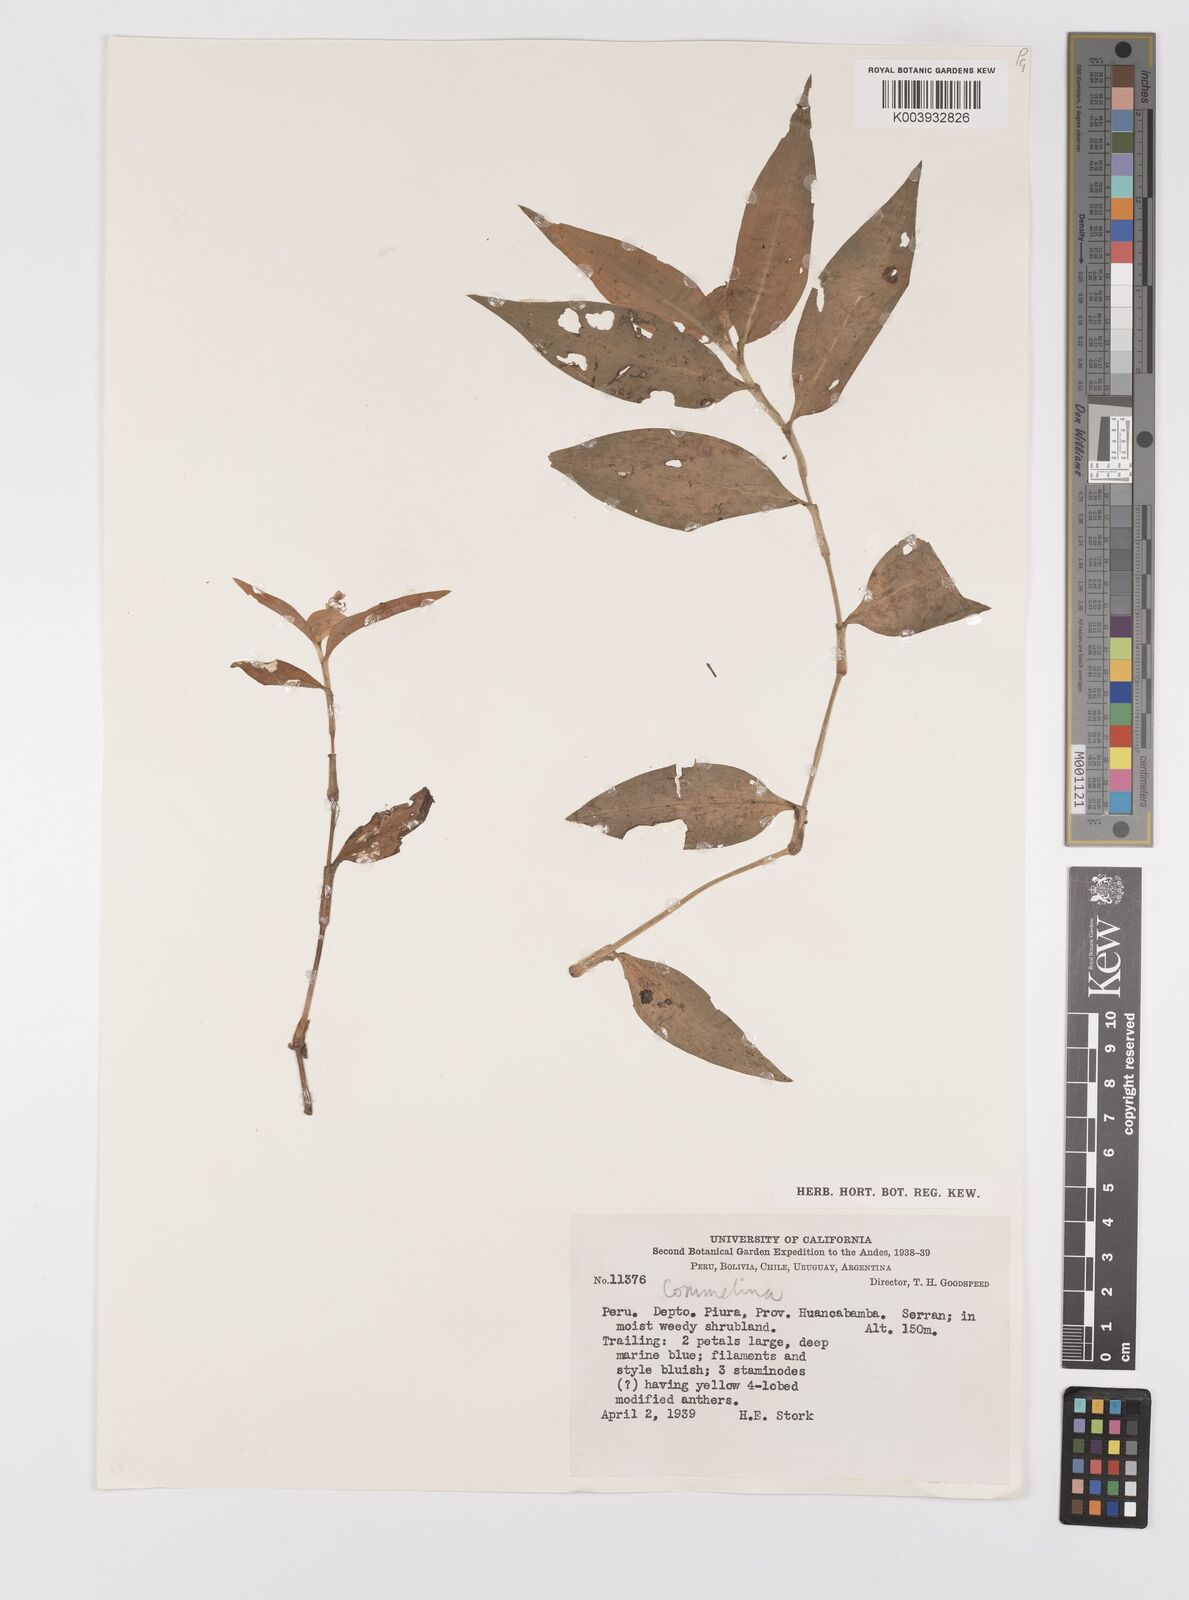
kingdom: Plantae
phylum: Tracheophyta
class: Liliopsida
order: Commelinales
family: Commelinaceae
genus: Commelina
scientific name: Commelina
